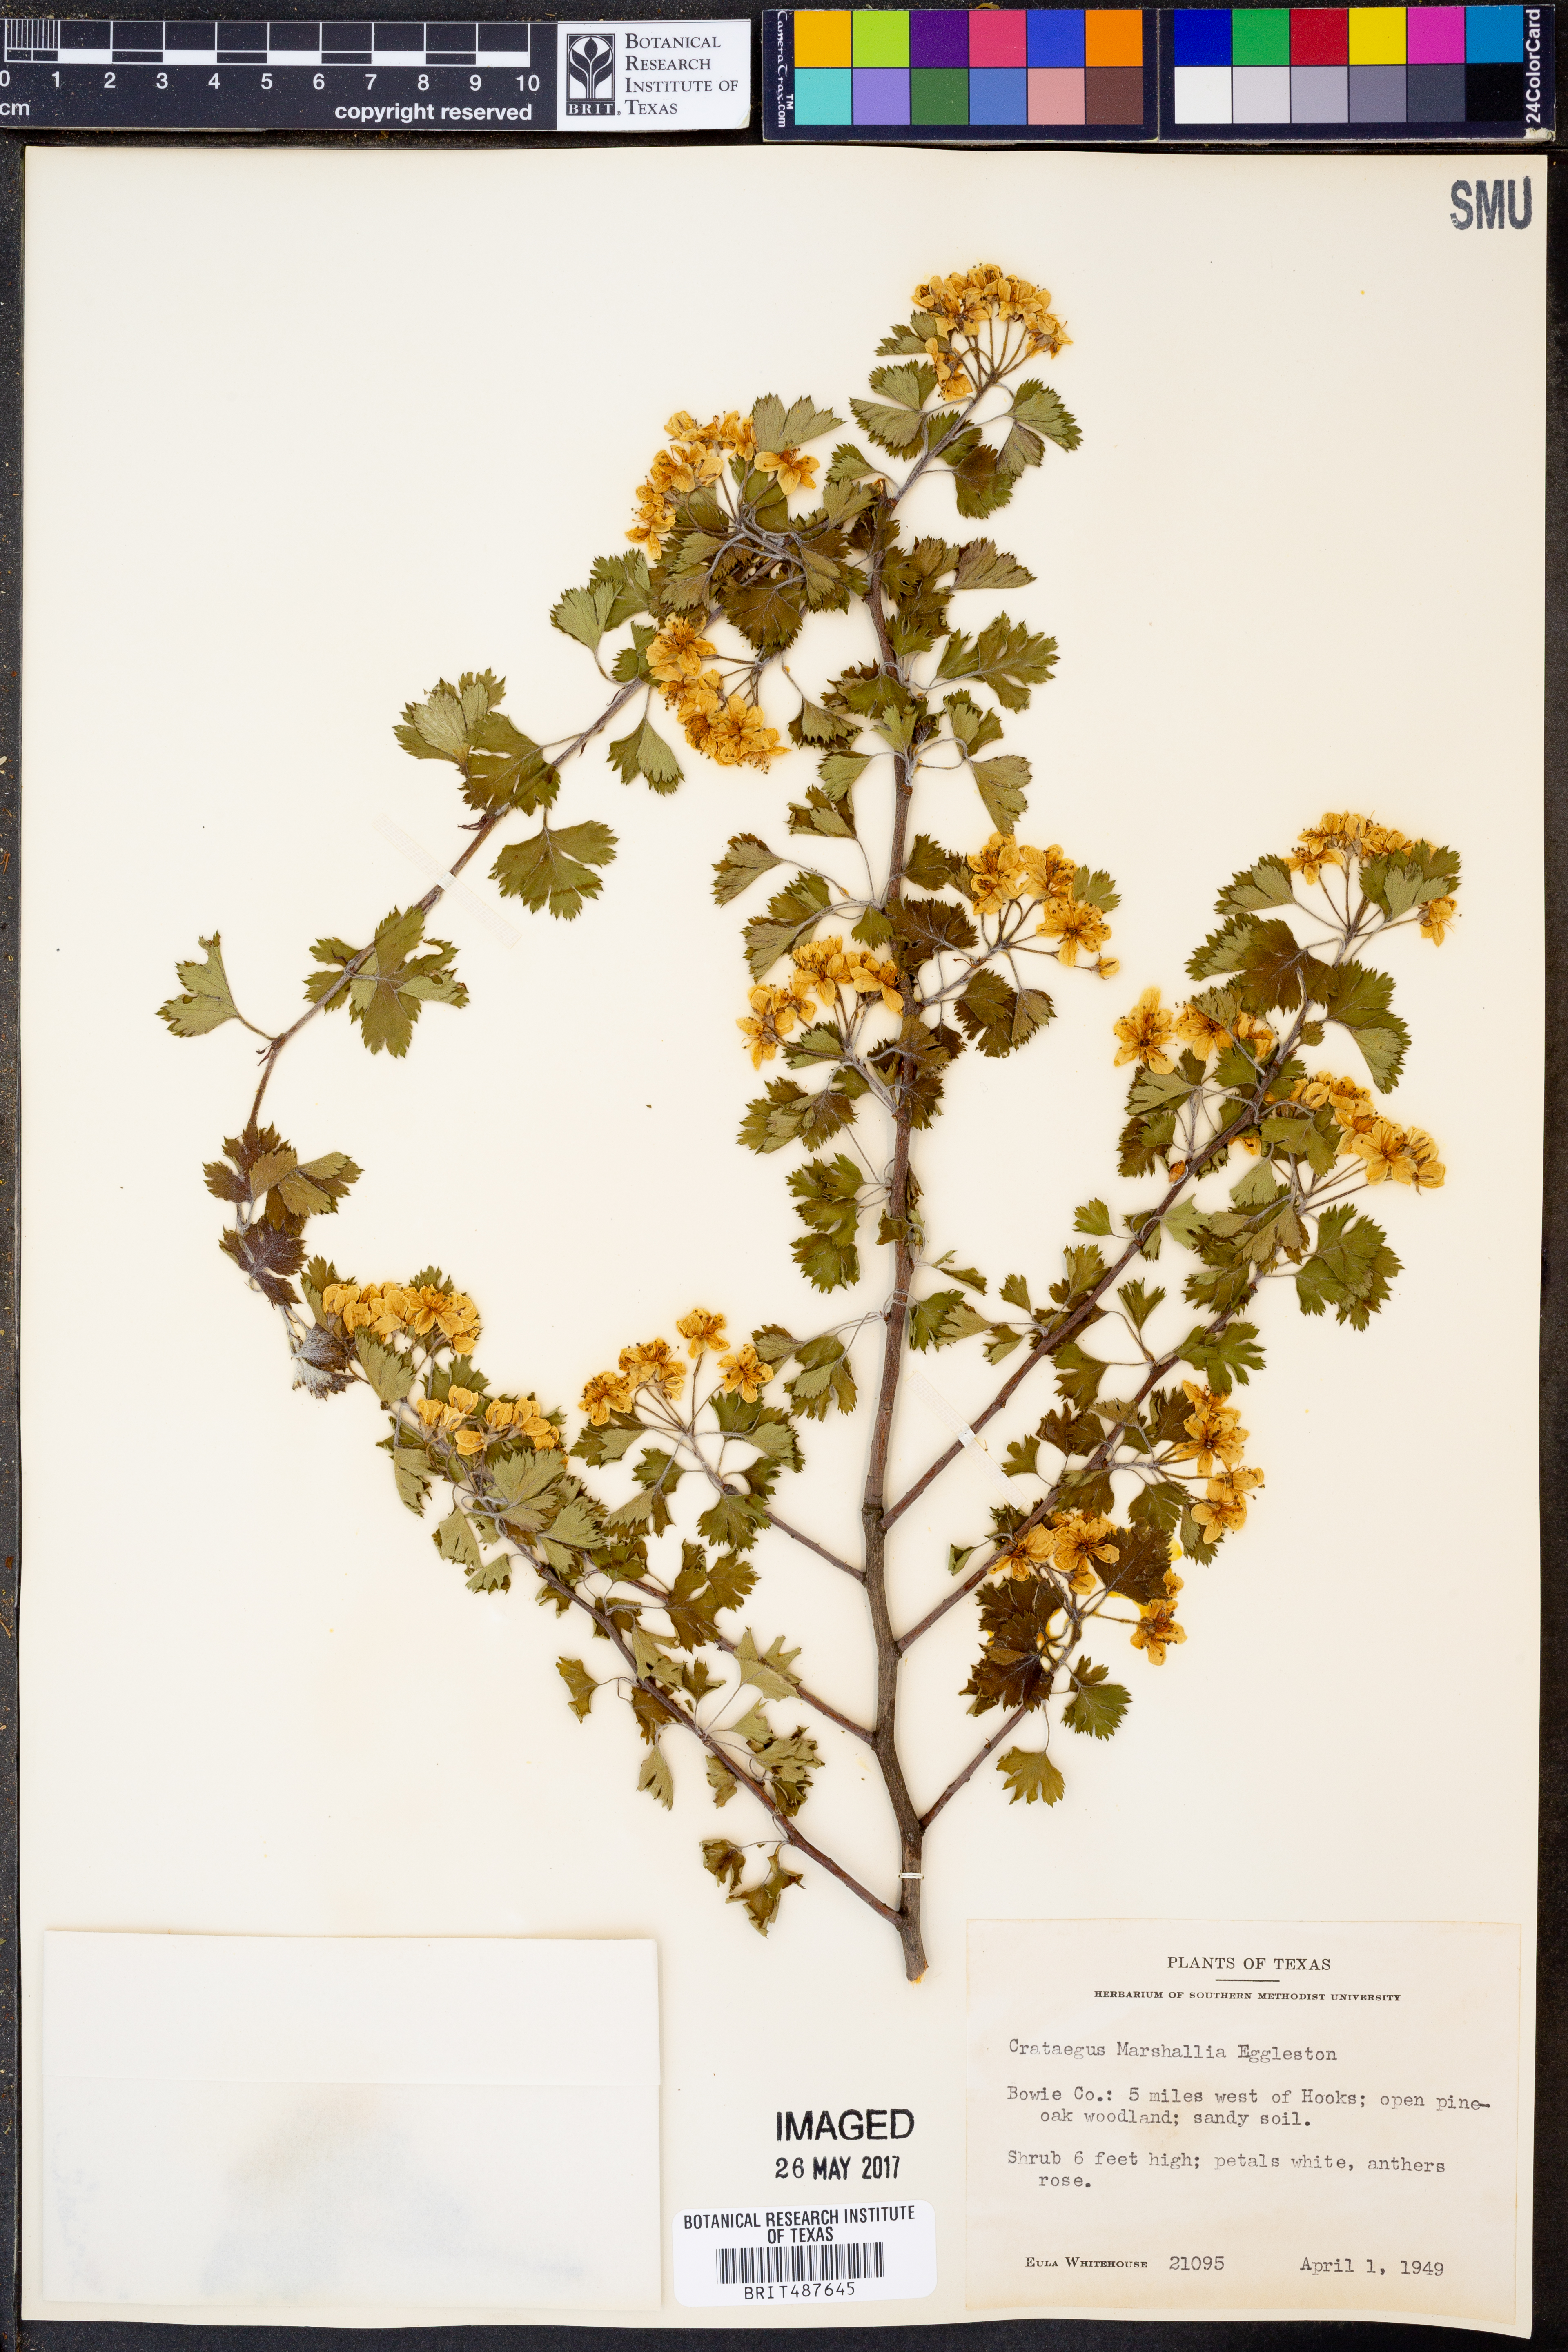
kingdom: Plantae
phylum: Tracheophyta
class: Magnoliopsida
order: Rosales
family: Rosaceae
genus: Crataegus
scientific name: Crataegus marshallii
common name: Parsley-hawthorn
